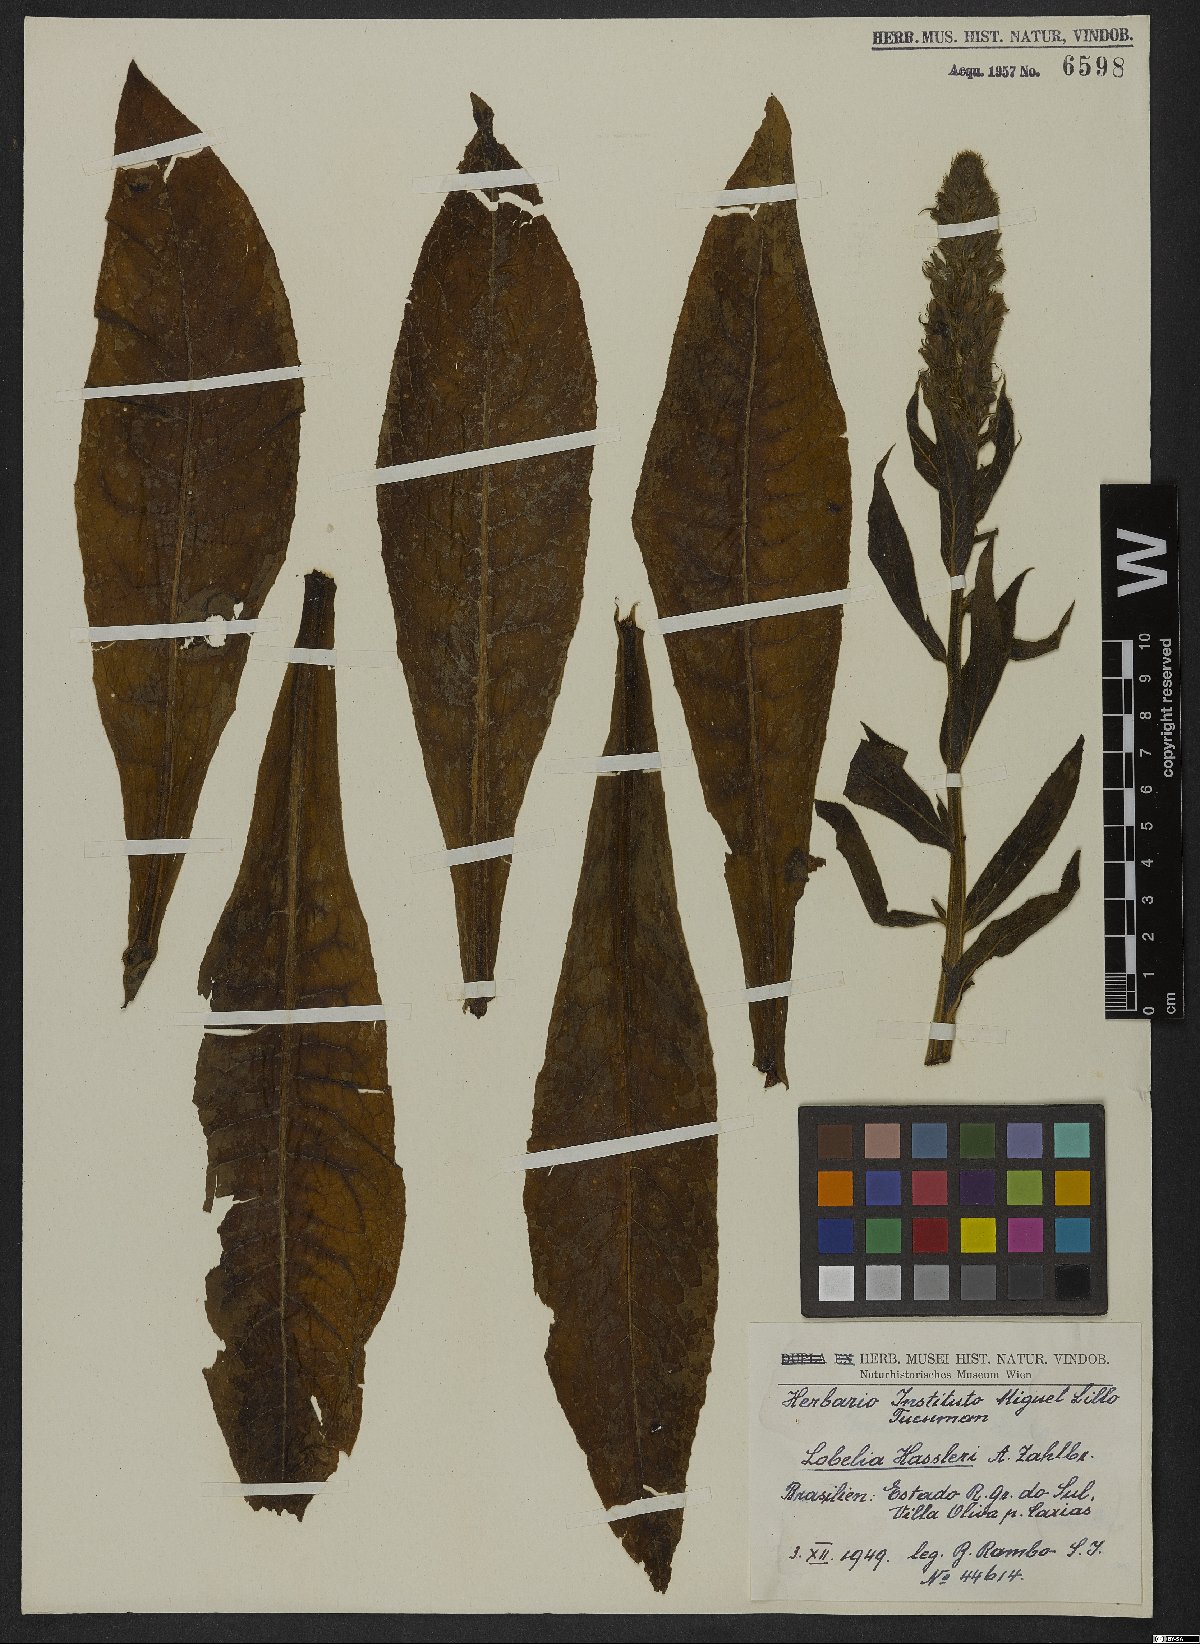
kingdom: Plantae
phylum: Tracheophyta
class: Magnoliopsida
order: Asterales
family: Campanulaceae
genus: Lobelia
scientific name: Lobelia hassleri
